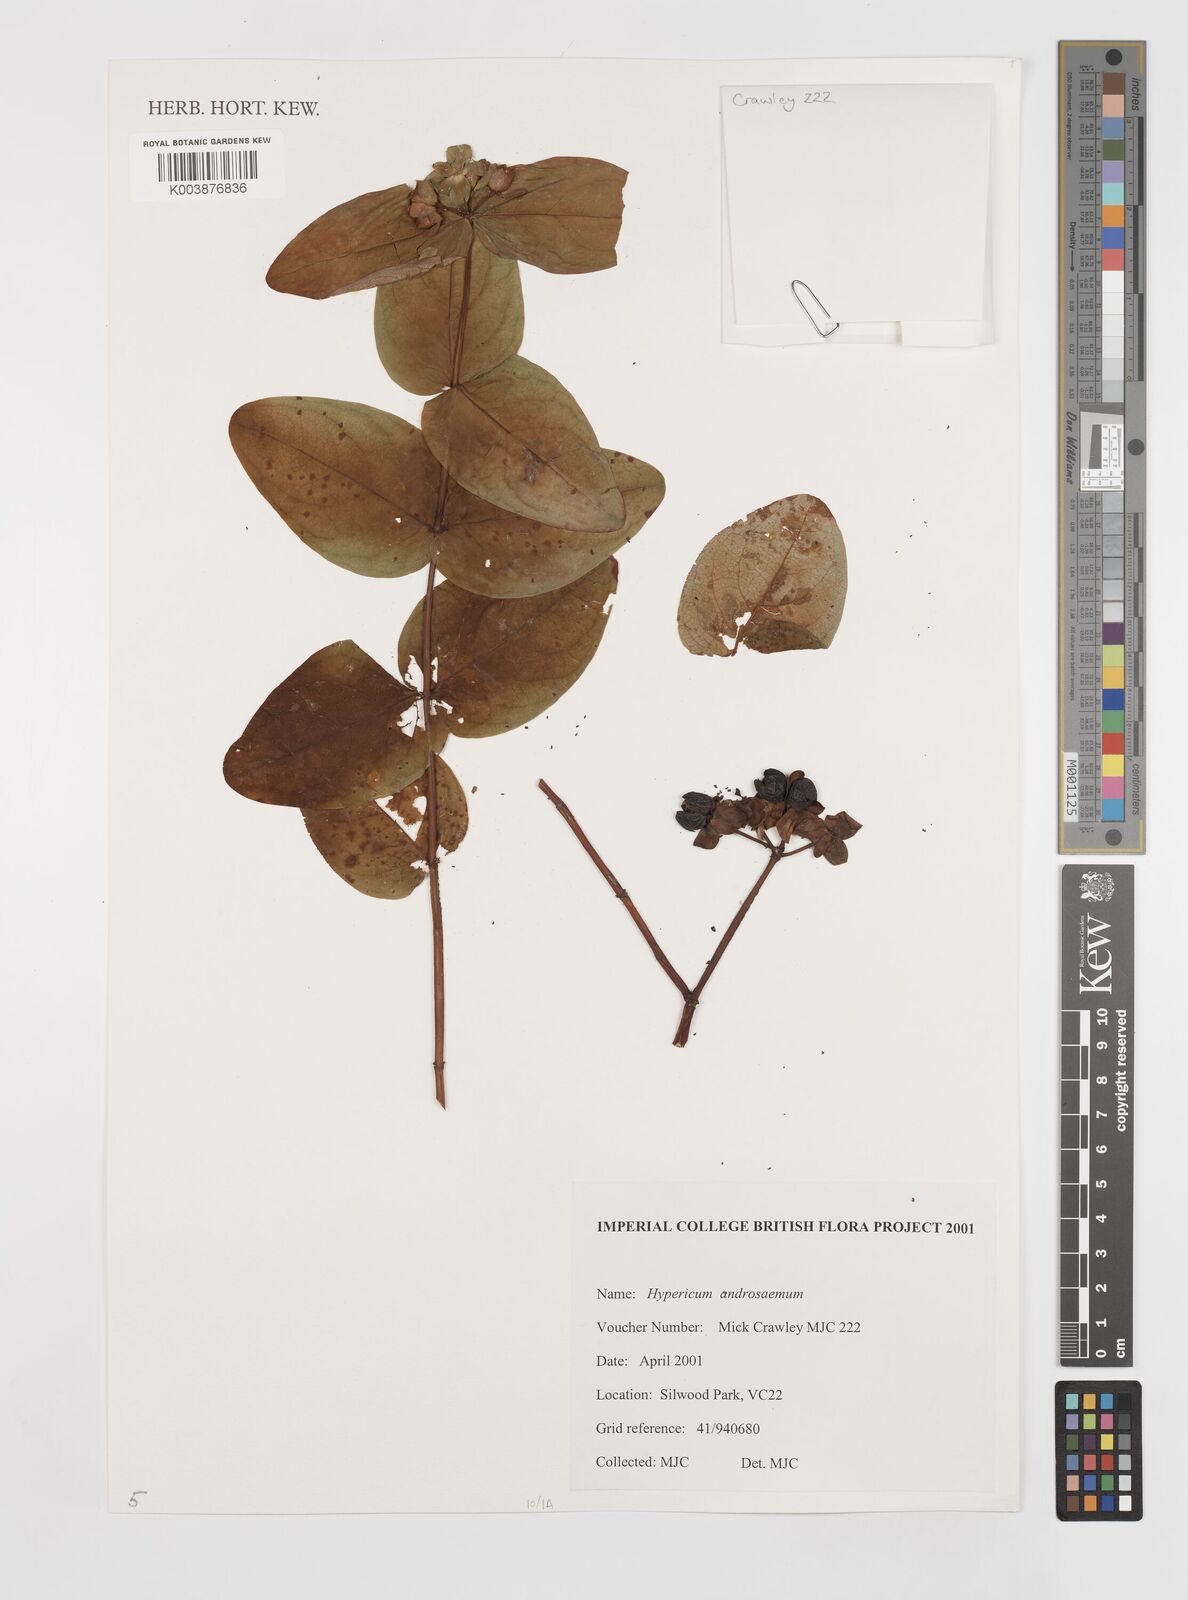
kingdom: Plantae
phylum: Tracheophyta
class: Magnoliopsida
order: Malpighiales
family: Hypericaceae
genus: Hypericum
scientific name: Hypericum androsaemum
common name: Sweet-amber
